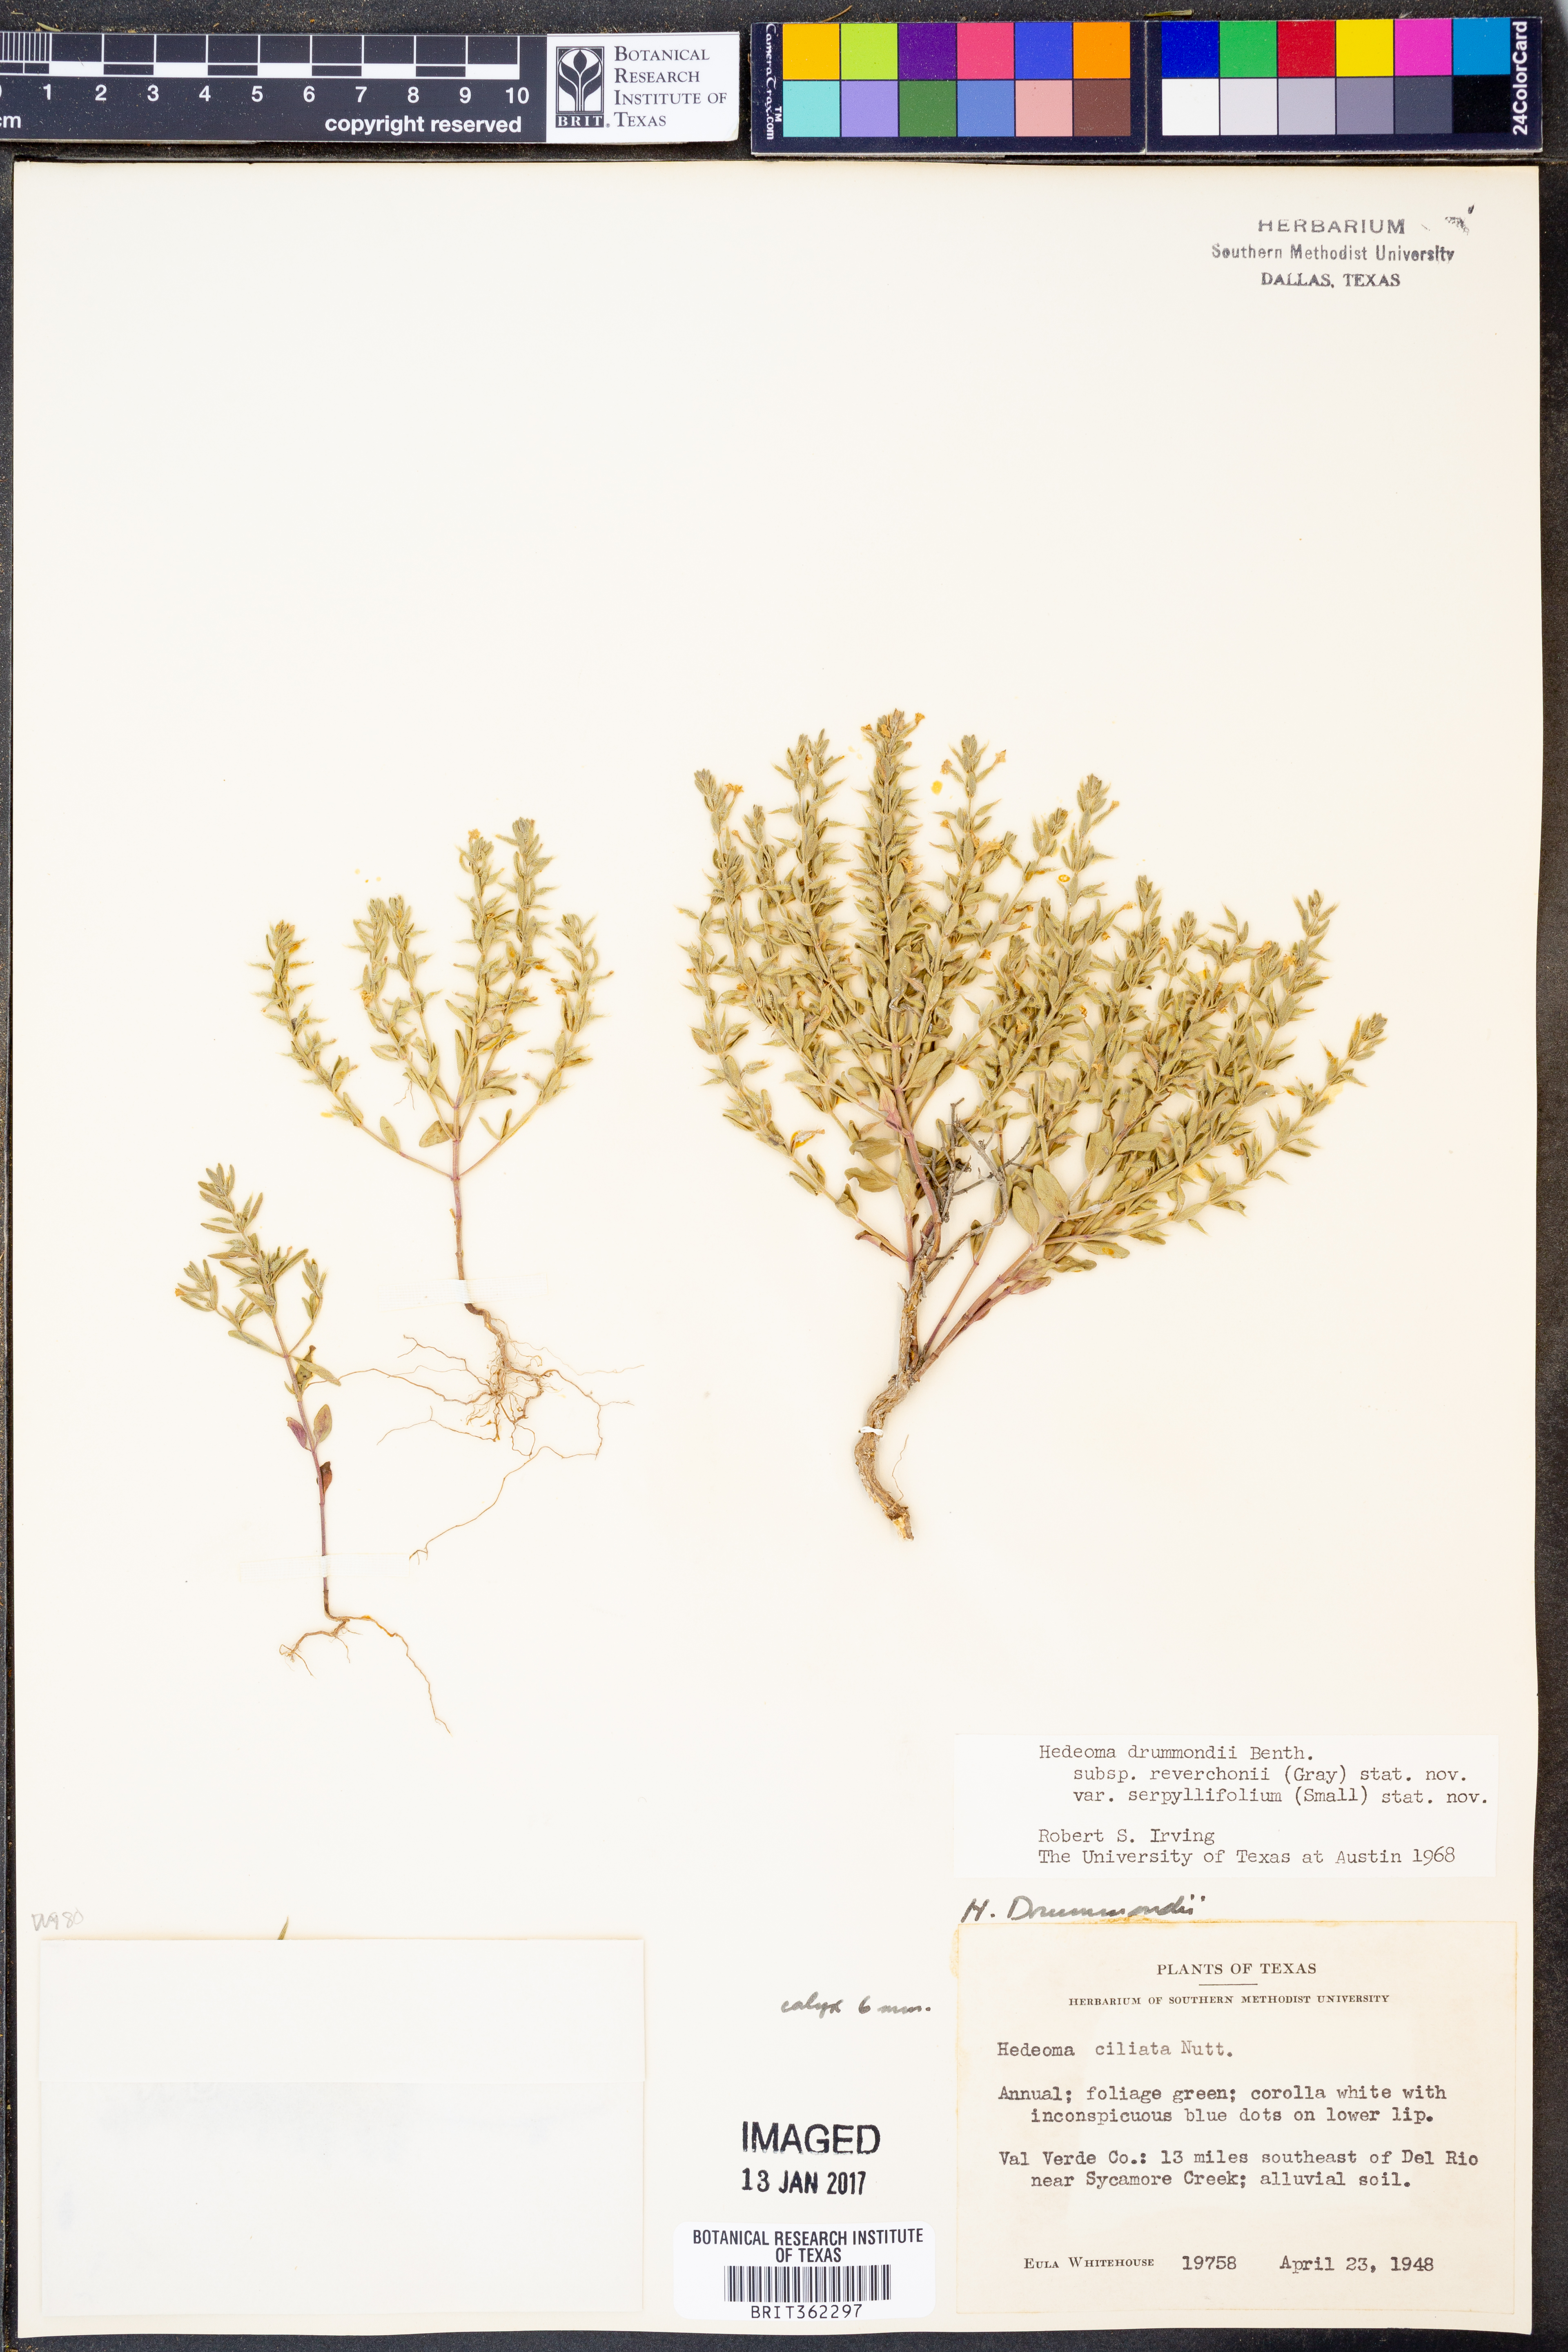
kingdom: Plantae
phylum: Tracheophyta
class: Magnoliopsida
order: Lamiales
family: Lamiaceae
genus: Hedeoma
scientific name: Hedeoma reverchonii
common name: Reverchon's false penny-royal
